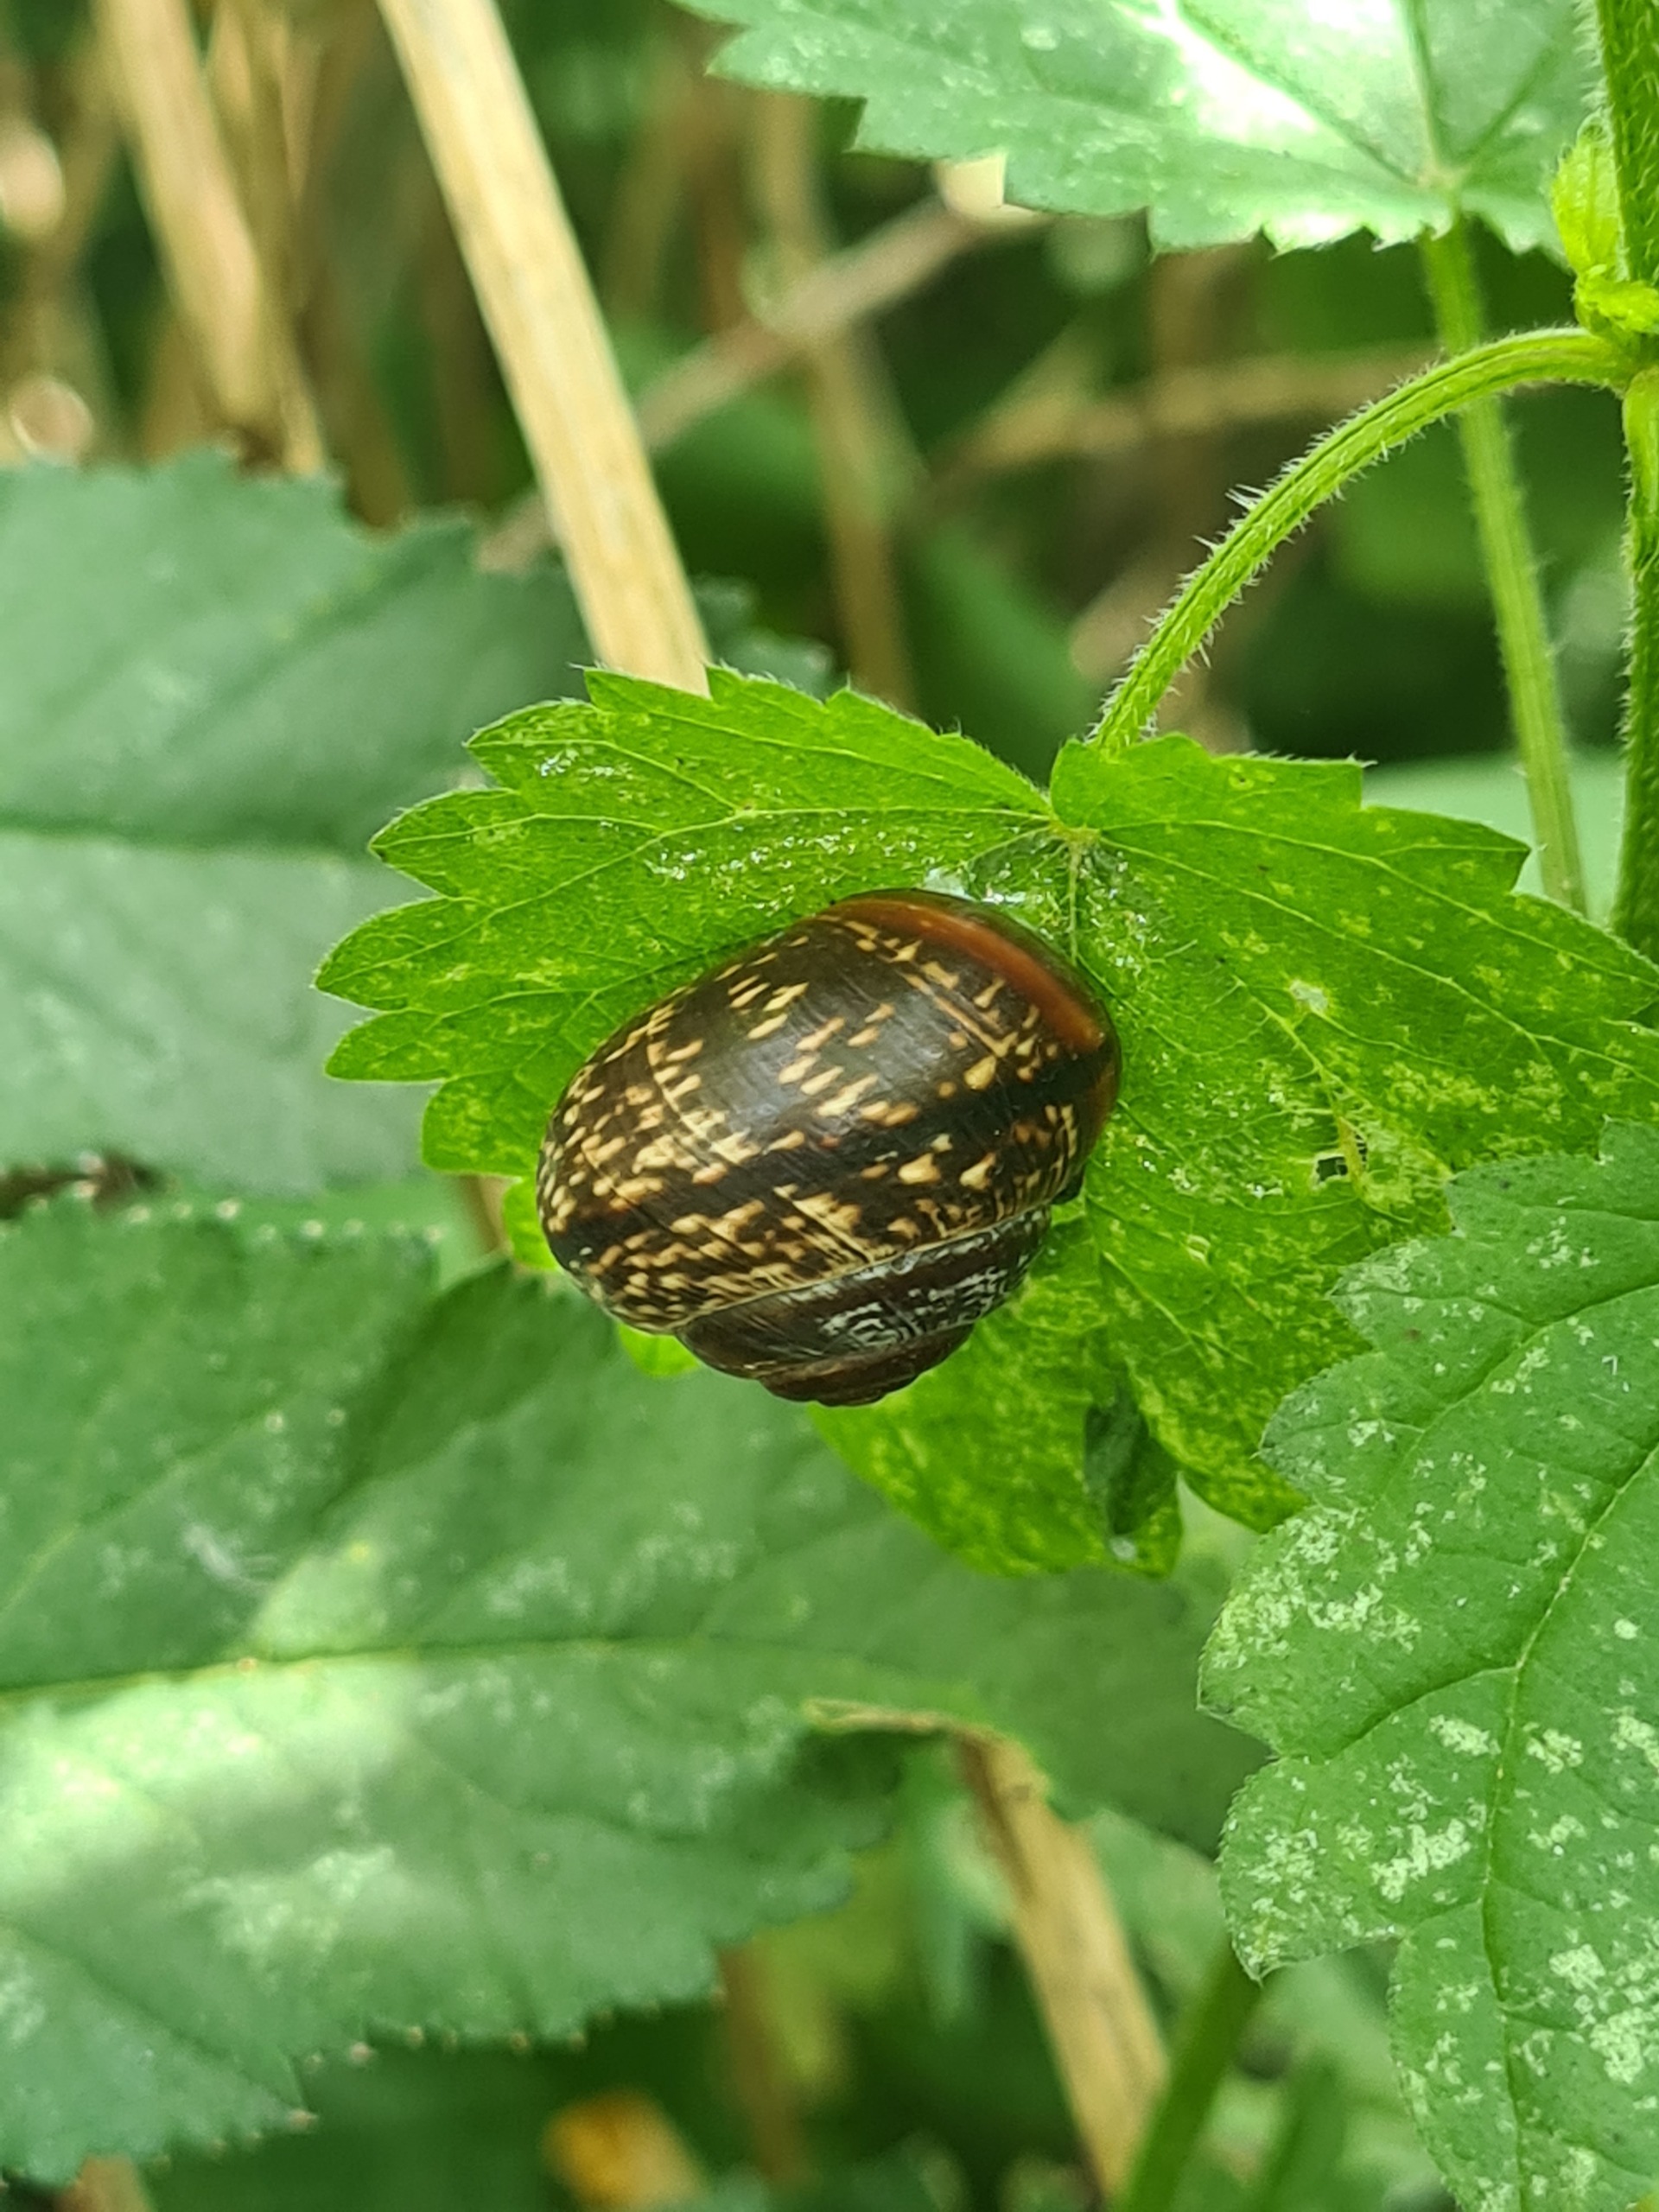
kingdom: Animalia
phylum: Mollusca
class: Gastropoda
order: Stylommatophora
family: Helicidae
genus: Arianta
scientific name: Arianta arbustorum
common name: Kratsnegl
